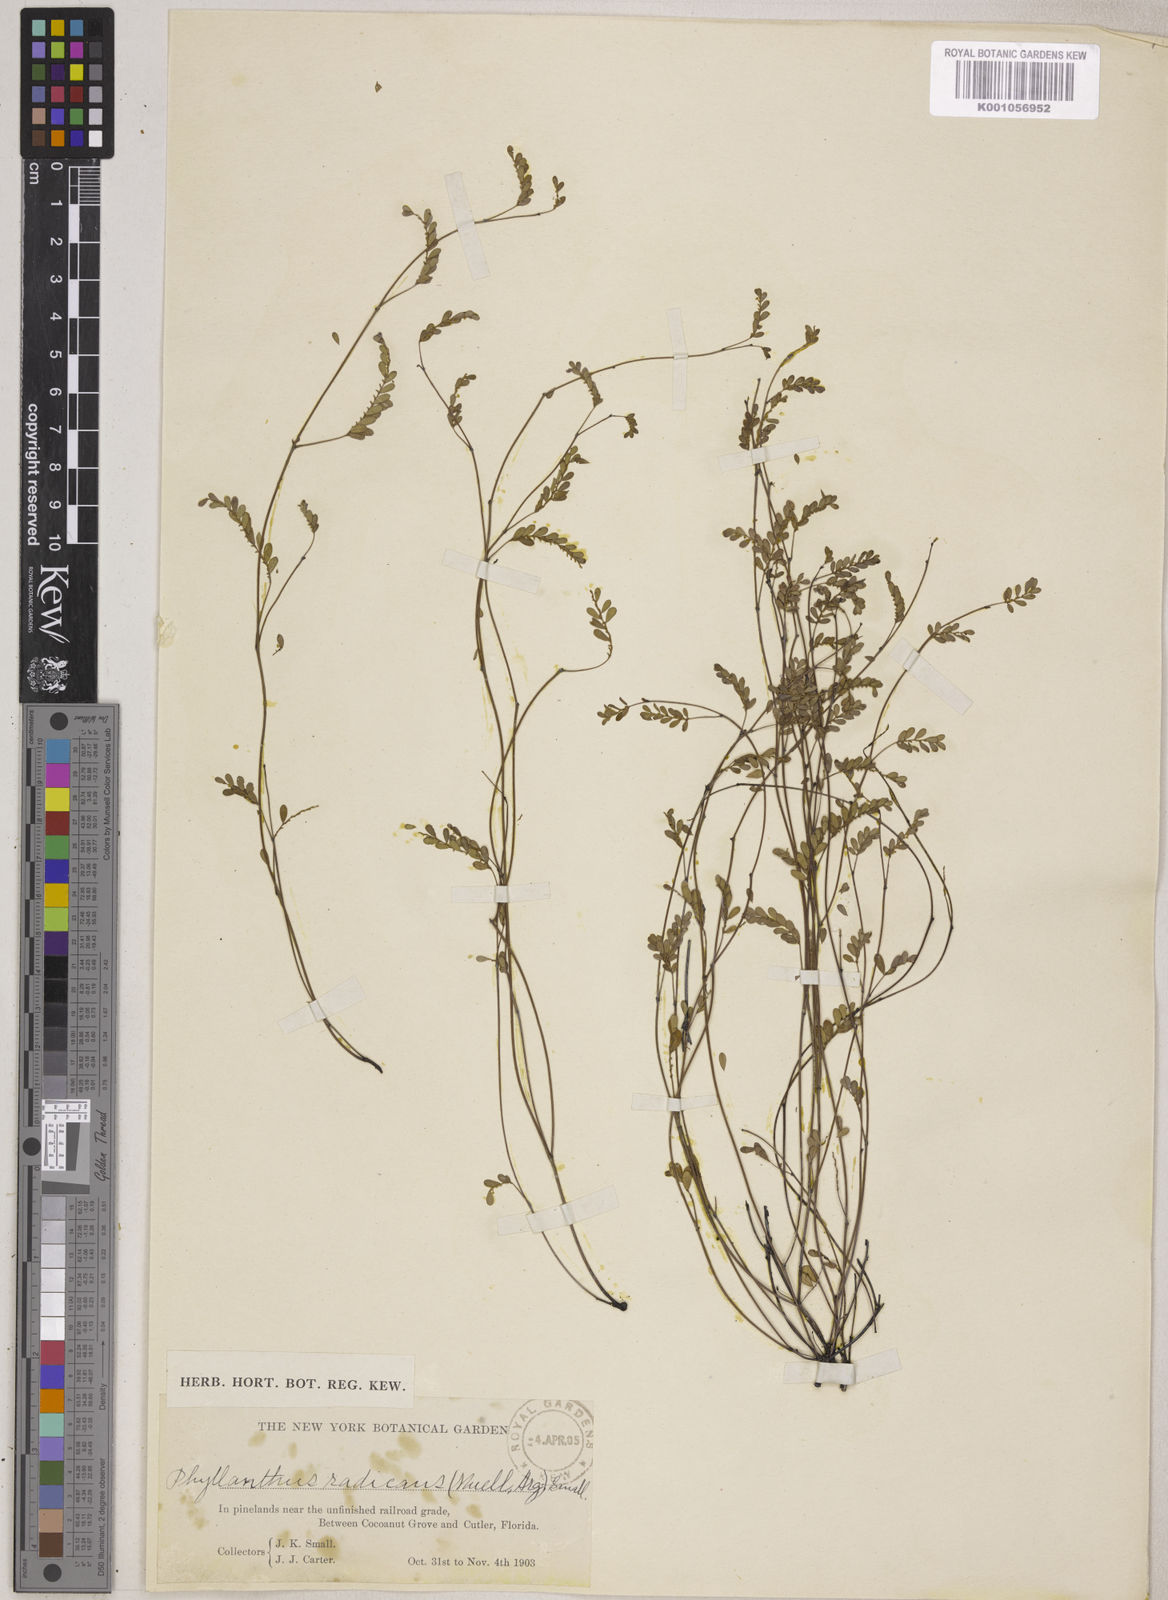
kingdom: Plantae
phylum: Tracheophyta
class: Magnoliopsida
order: Malpighiales
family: Phyllanthaceae
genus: Phyllanthus
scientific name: Phyllanthus pentaphyllus
